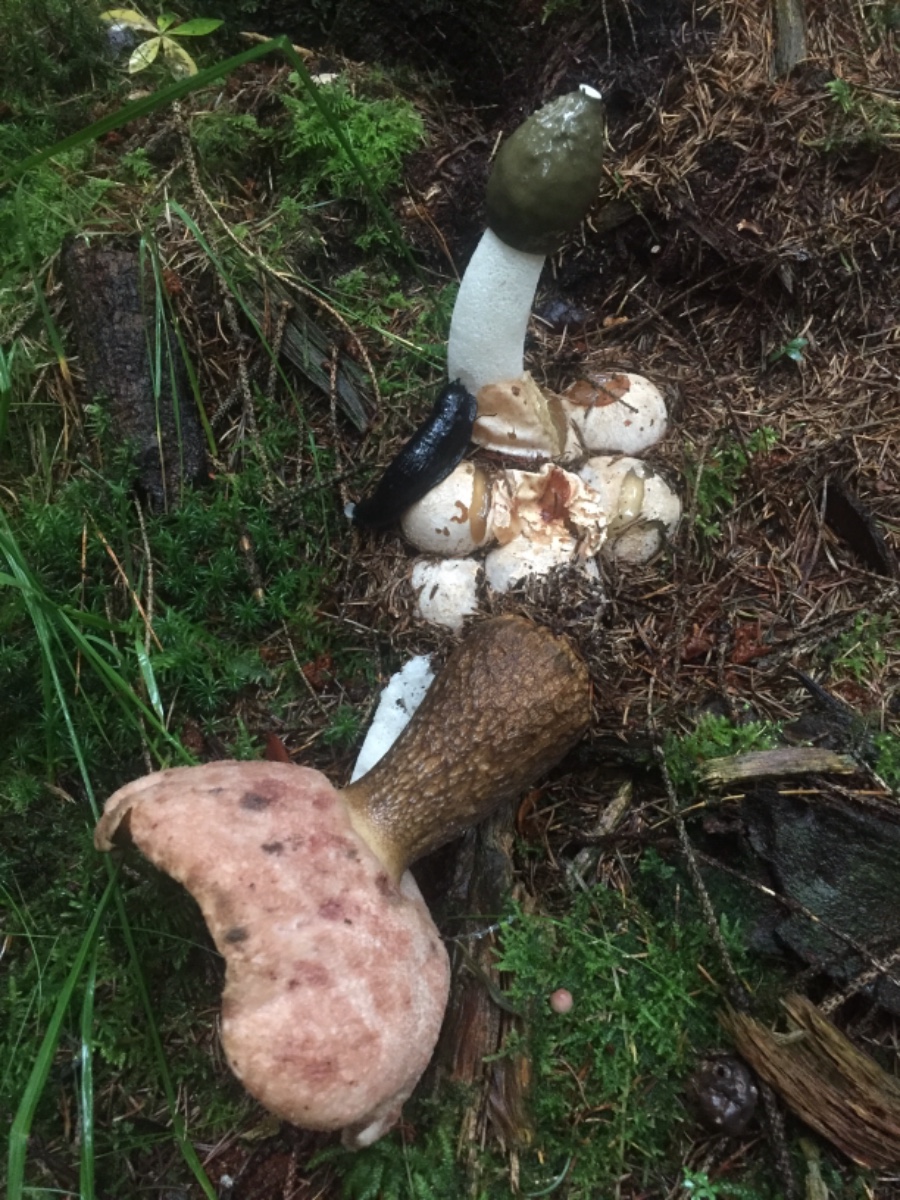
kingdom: Fungi
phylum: Basidiomycota
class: Agaricomycetes
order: Boletales
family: Boletaceae
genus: Tylopilus
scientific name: Tylopilus felleus
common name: galderørhat
